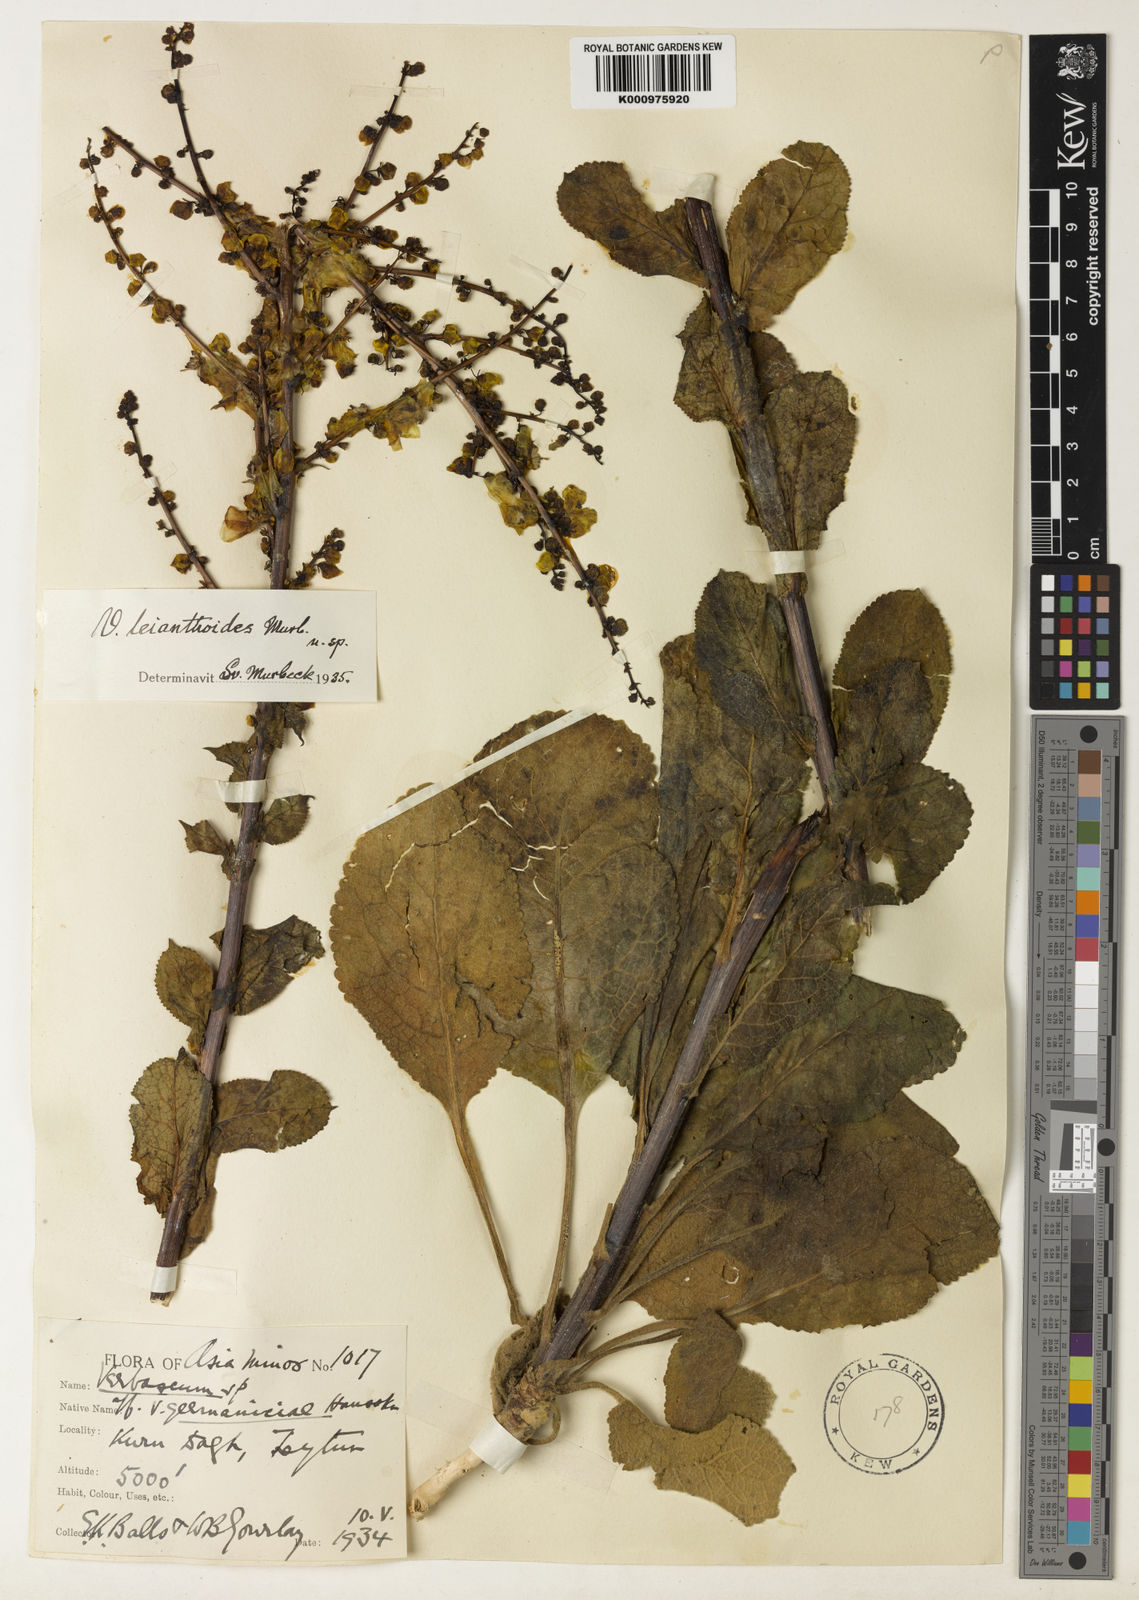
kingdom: Plantae
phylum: Tracheophyta
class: Magnoliopsida
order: Lamiales
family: Scrophulariaceae
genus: Verbascum
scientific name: Verbascum leianthoides
